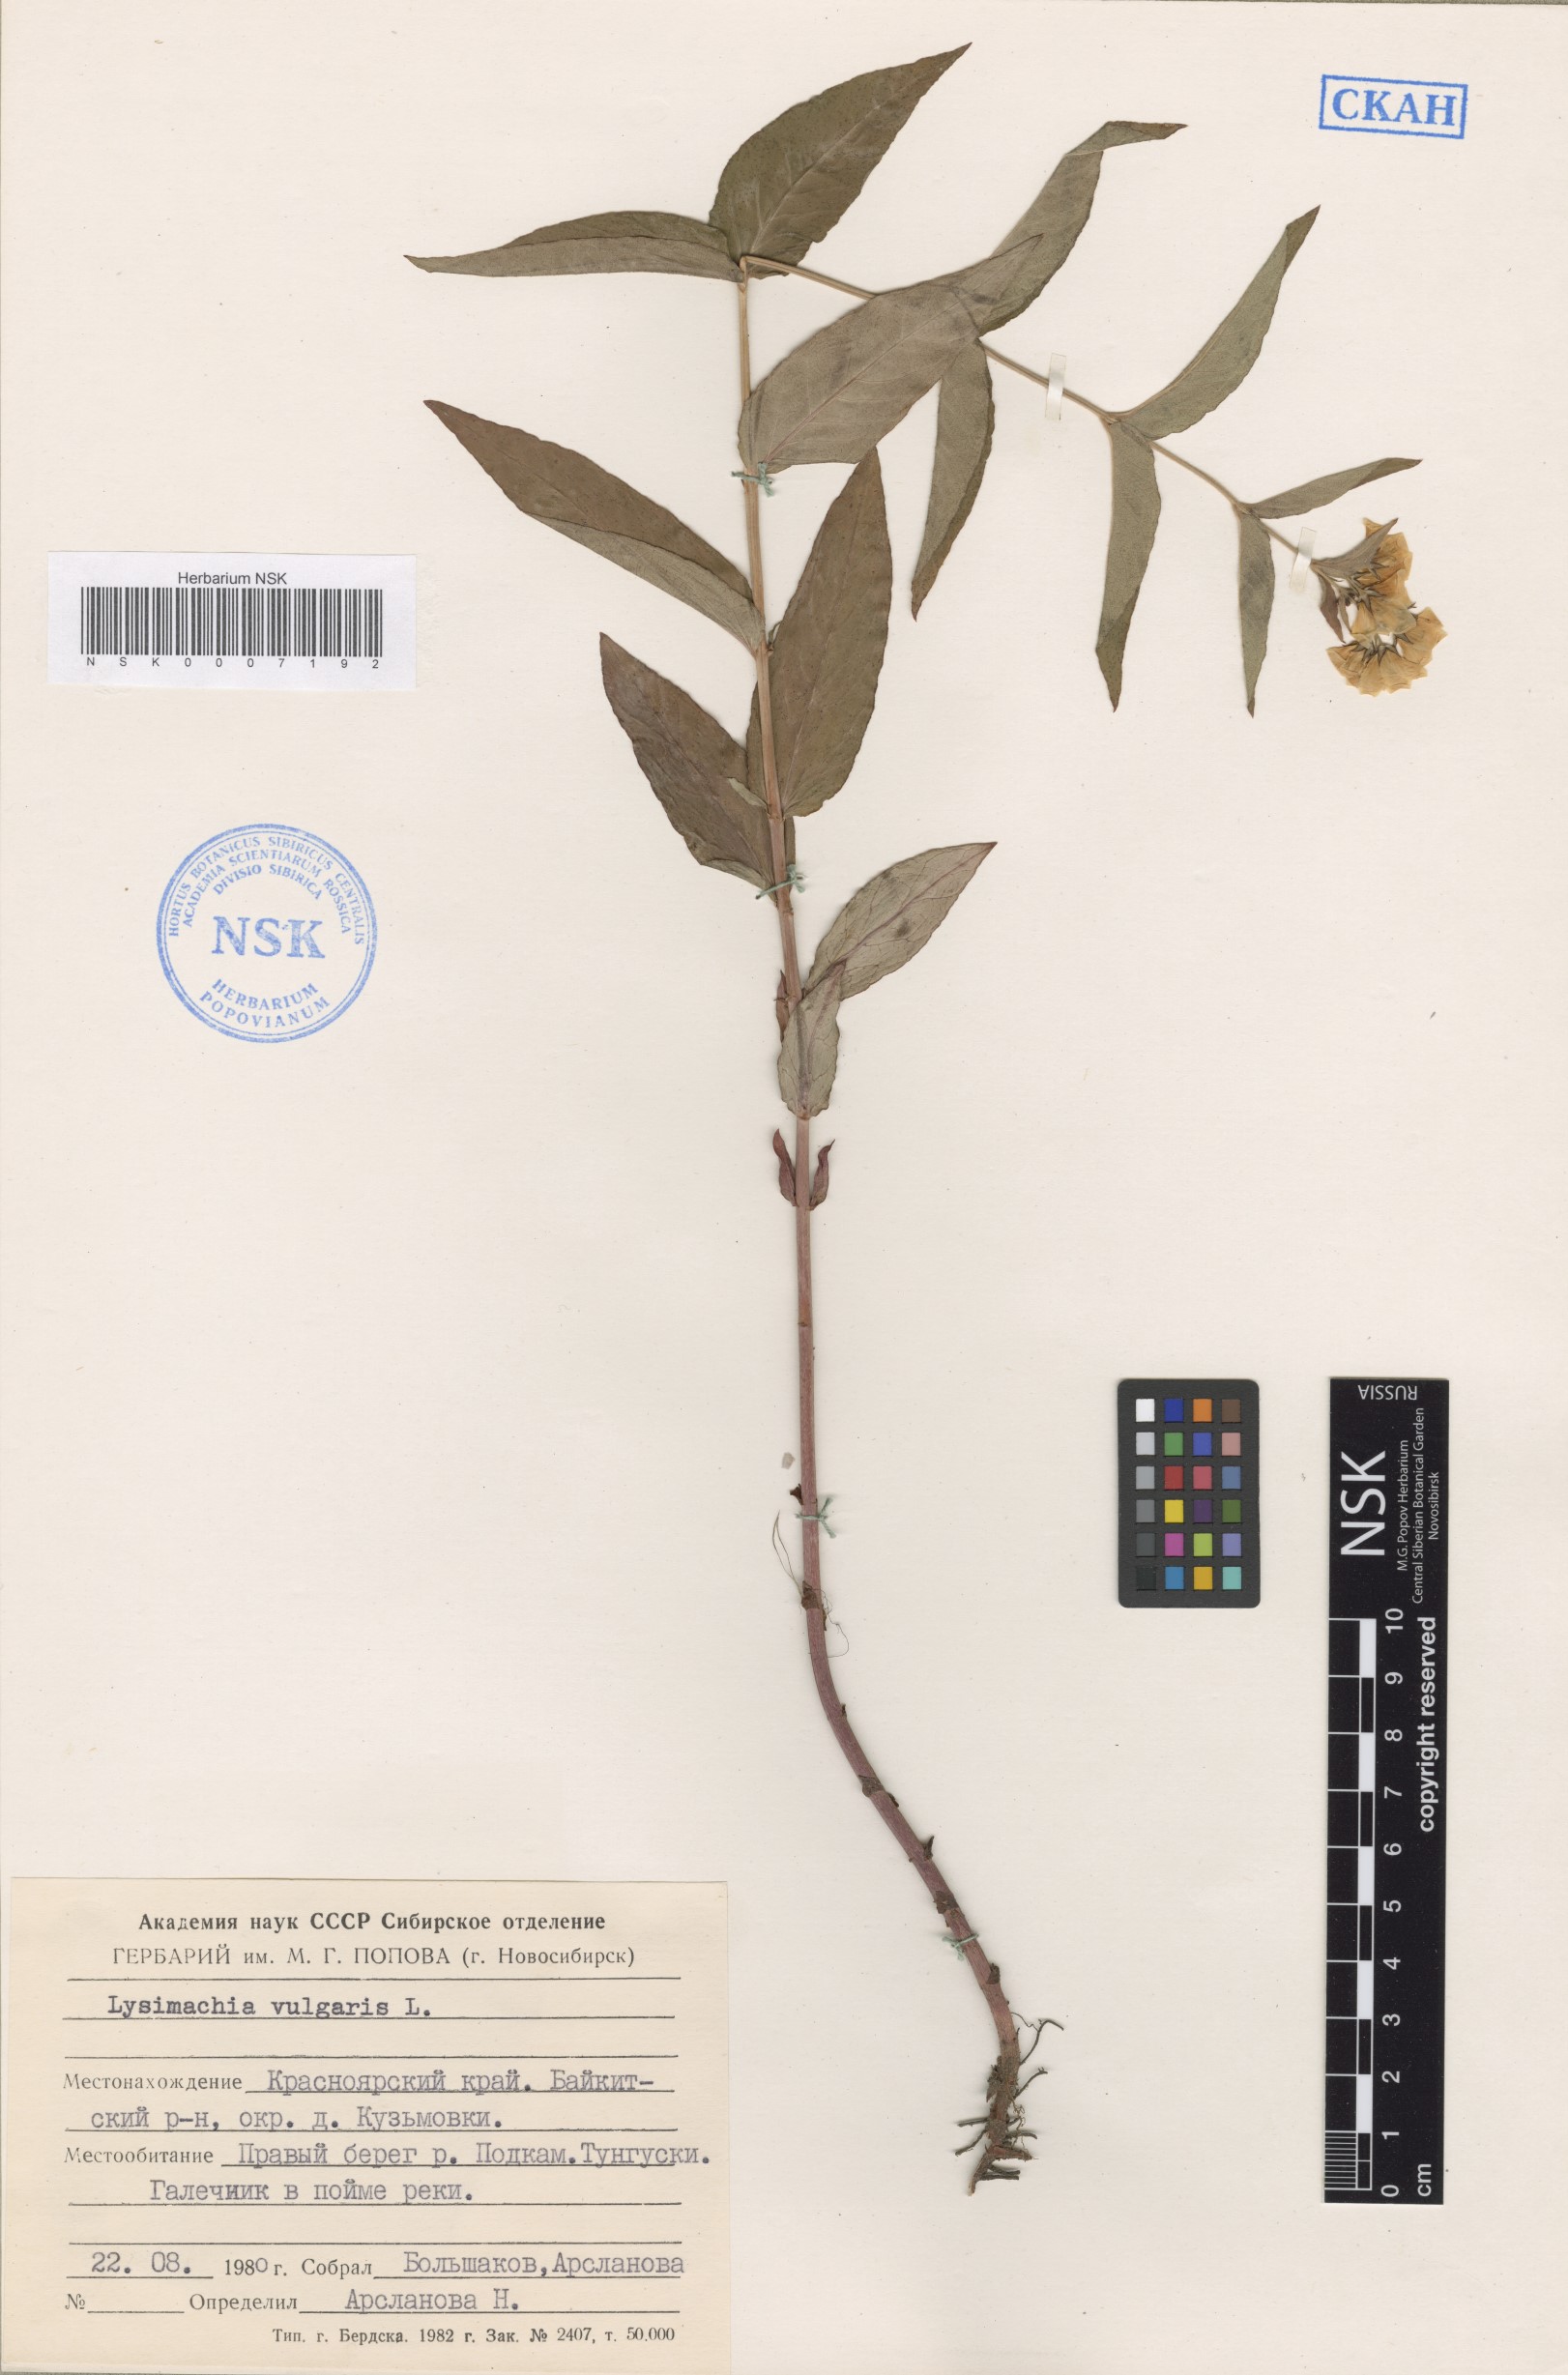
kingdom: Plantae
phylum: Tracheophyta
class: Magnoliopsida
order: Ericales
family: Primulaceae
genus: Lysimachia
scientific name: Lysimachia vulgaris
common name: Yellow loosestrife
